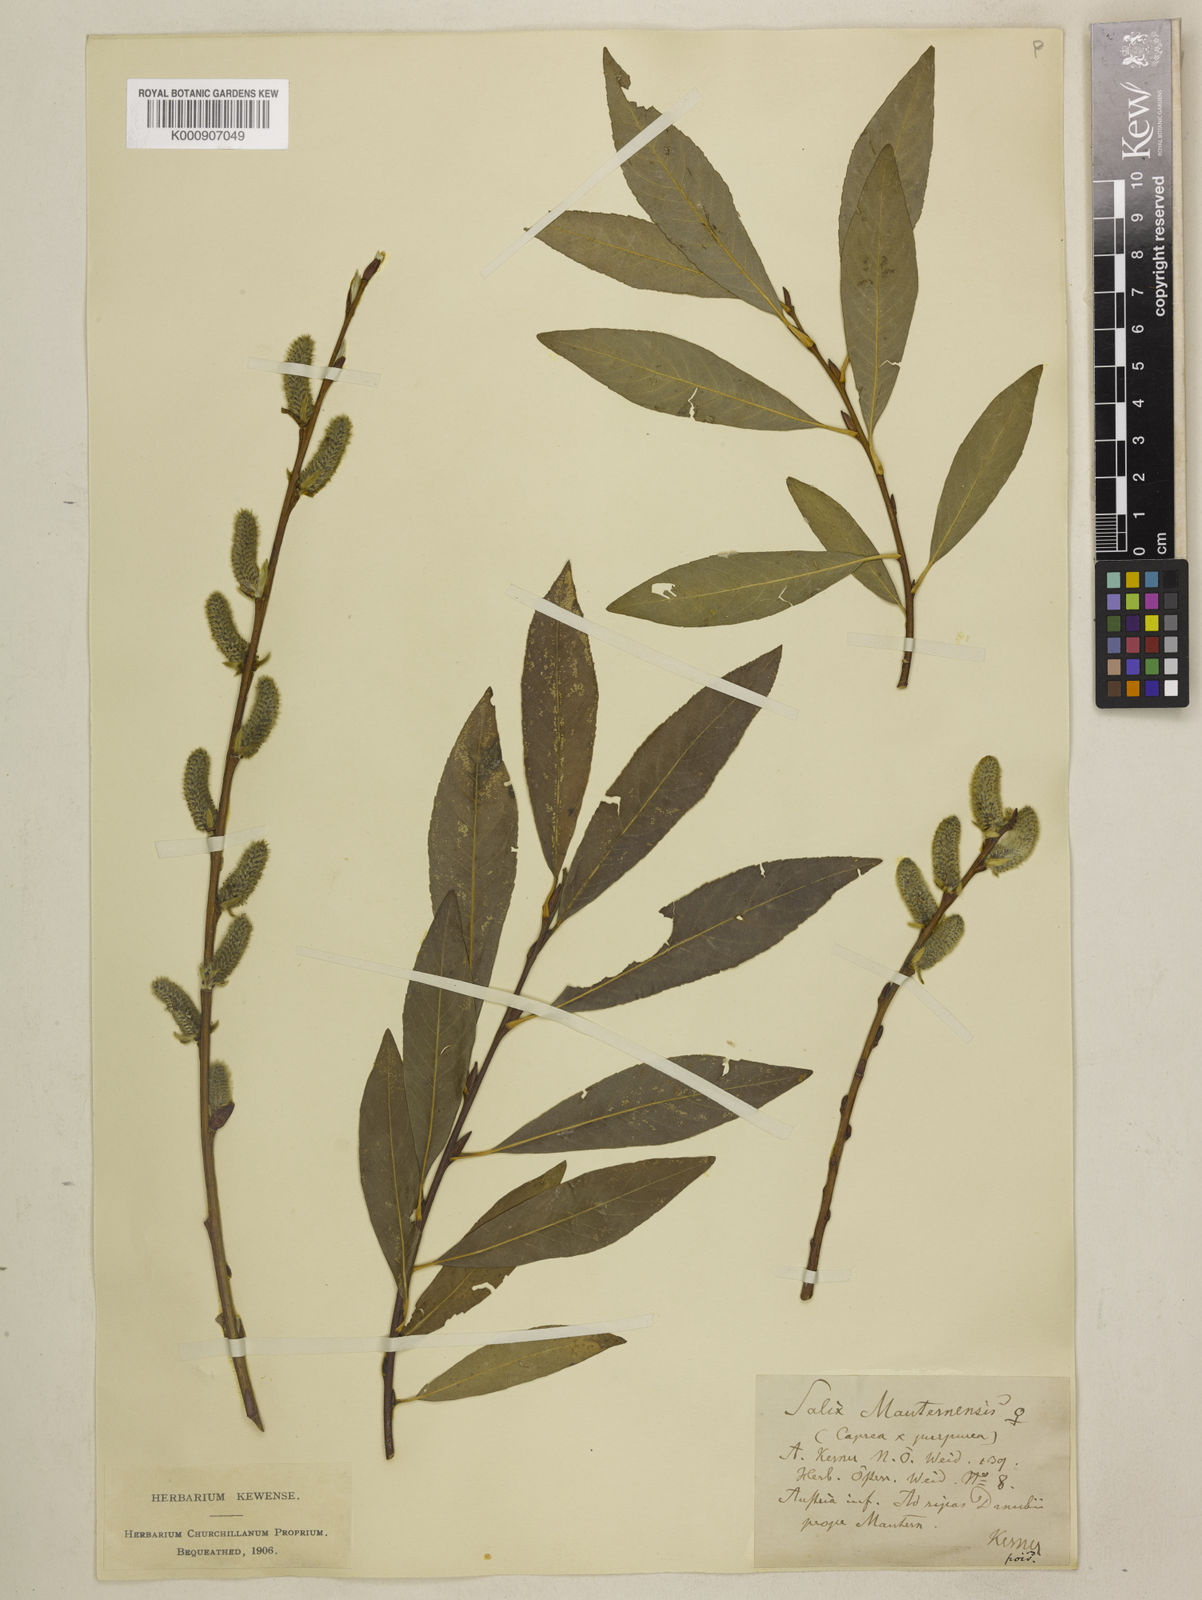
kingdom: Plantae
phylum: Tracheophyta
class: Magnoliopsida
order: Malpighiales
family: Salicaceae
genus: Salix
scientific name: Salix caprea
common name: Goat willow
